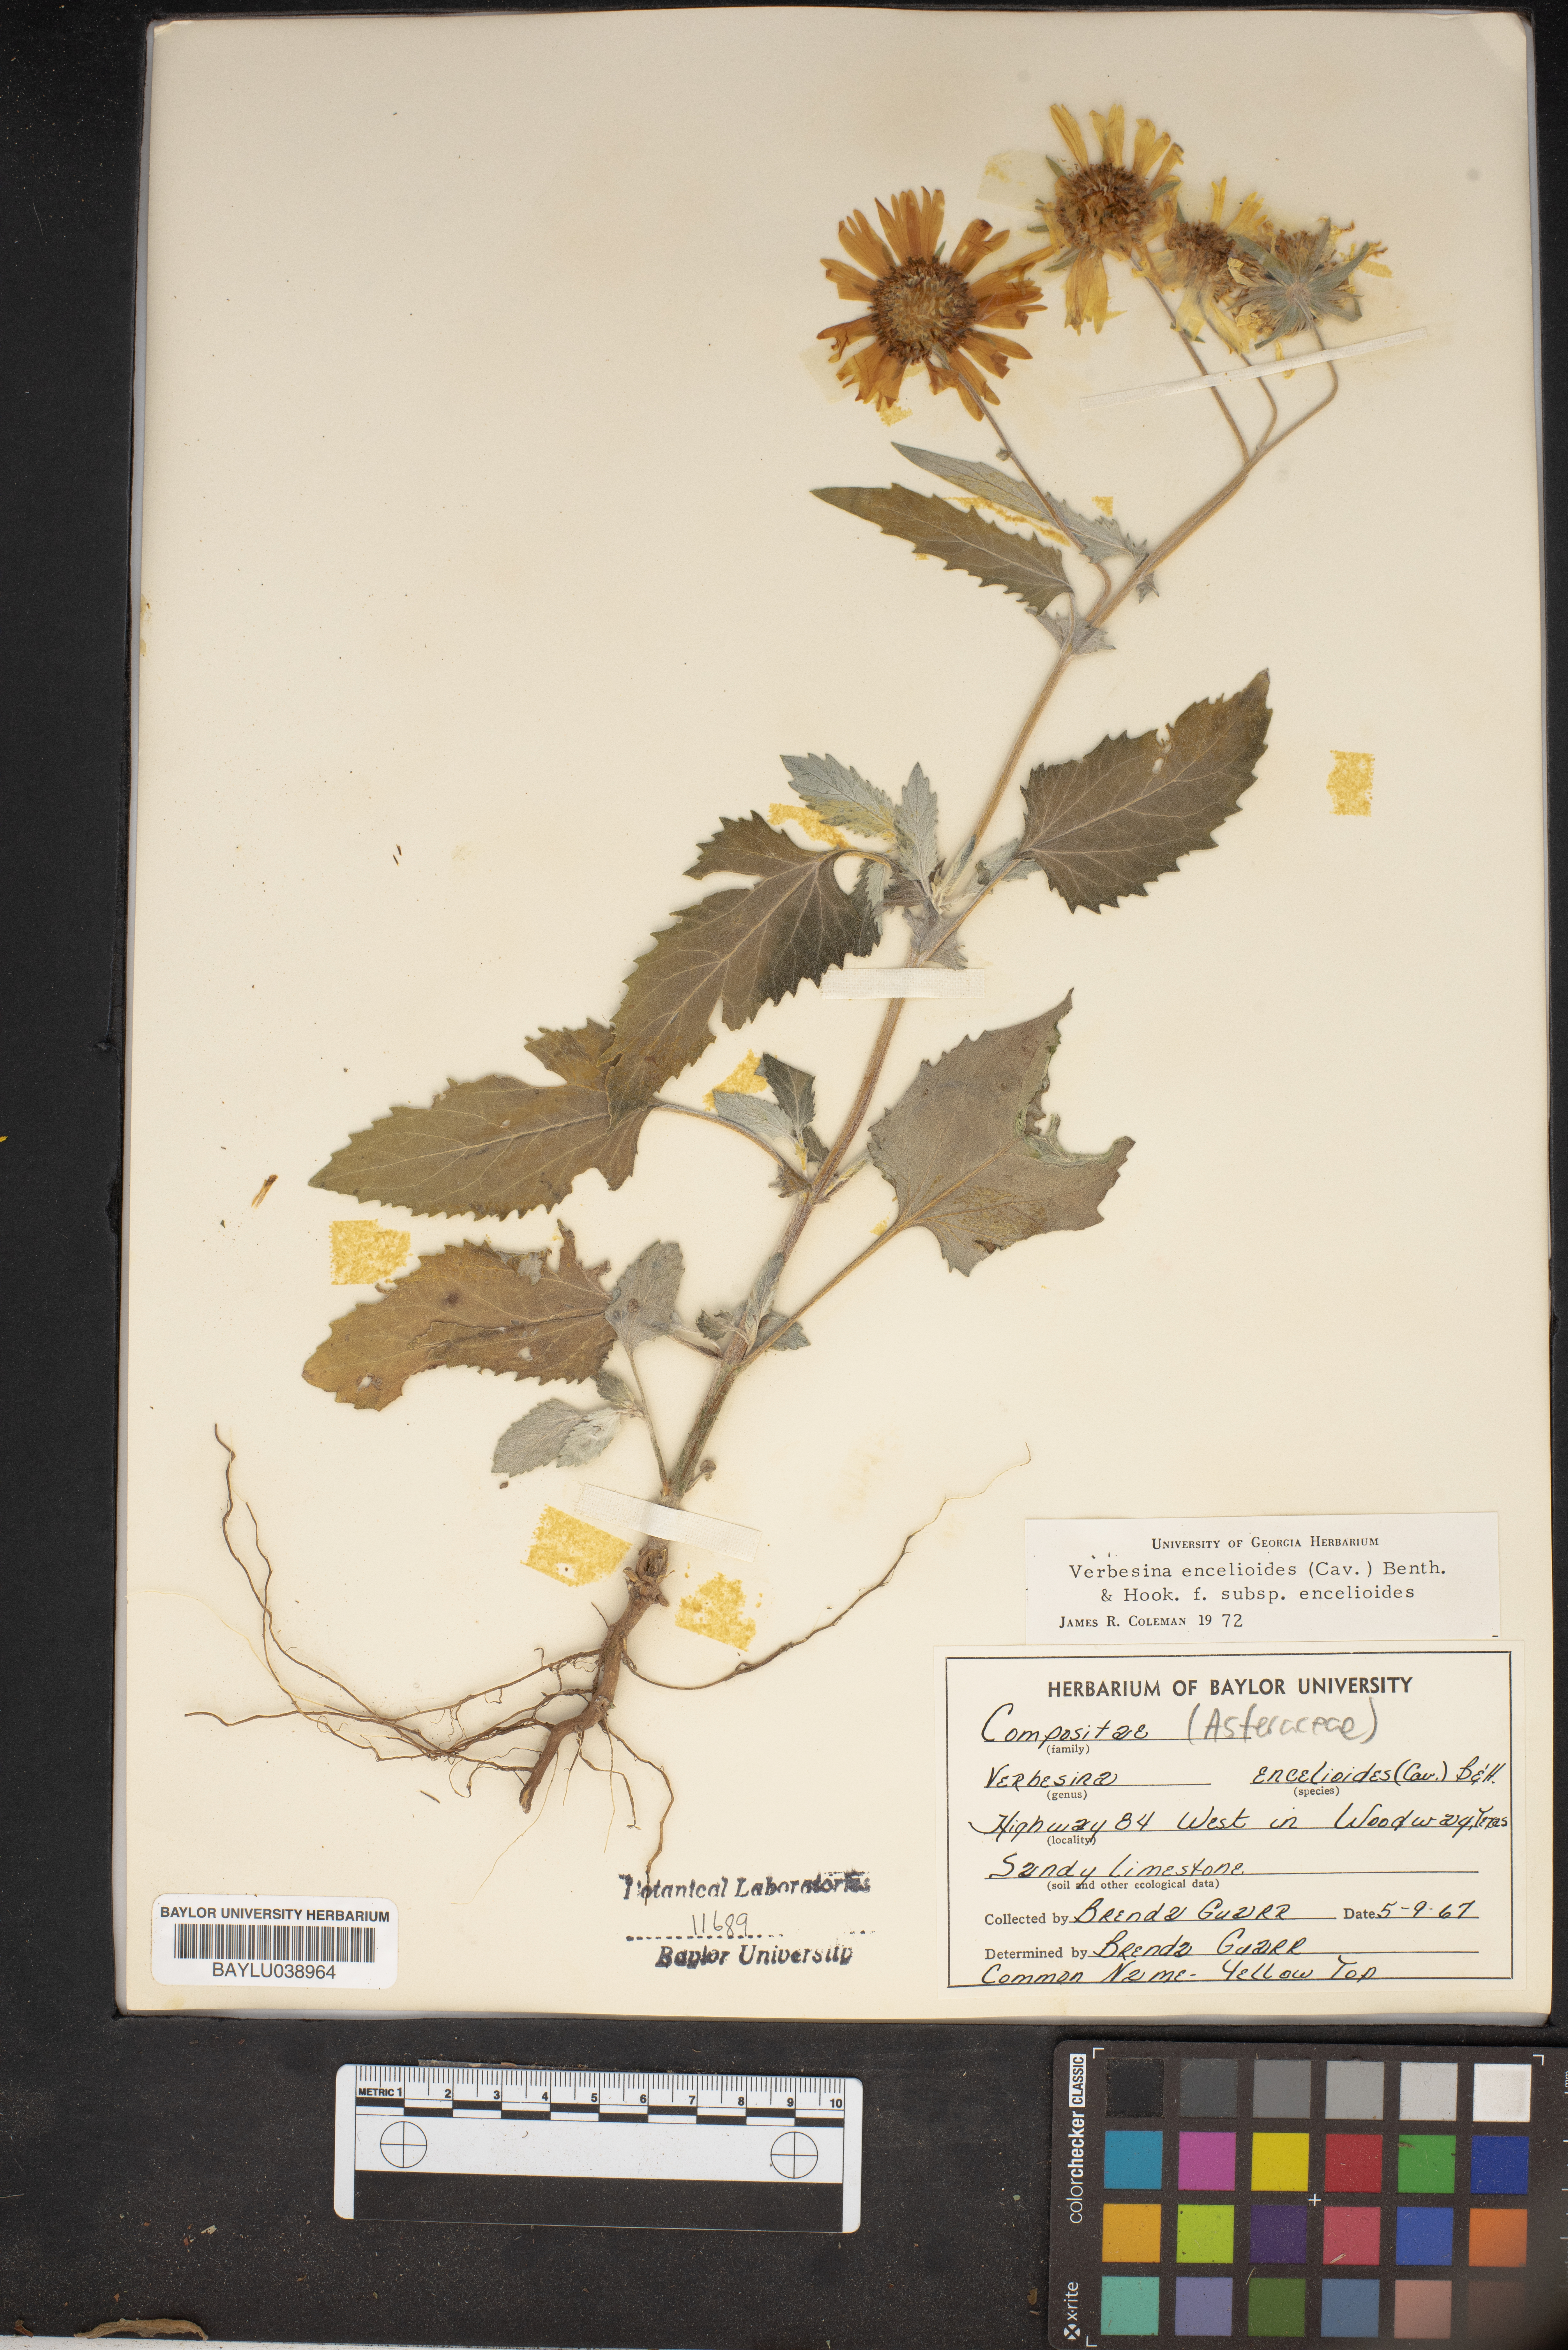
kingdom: Plantae
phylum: Tracheophyta
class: Magnoliopsida
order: Asterales
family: Asteraceae
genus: Verbesina
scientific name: Verbesina encelioides
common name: Golden crownbeard
